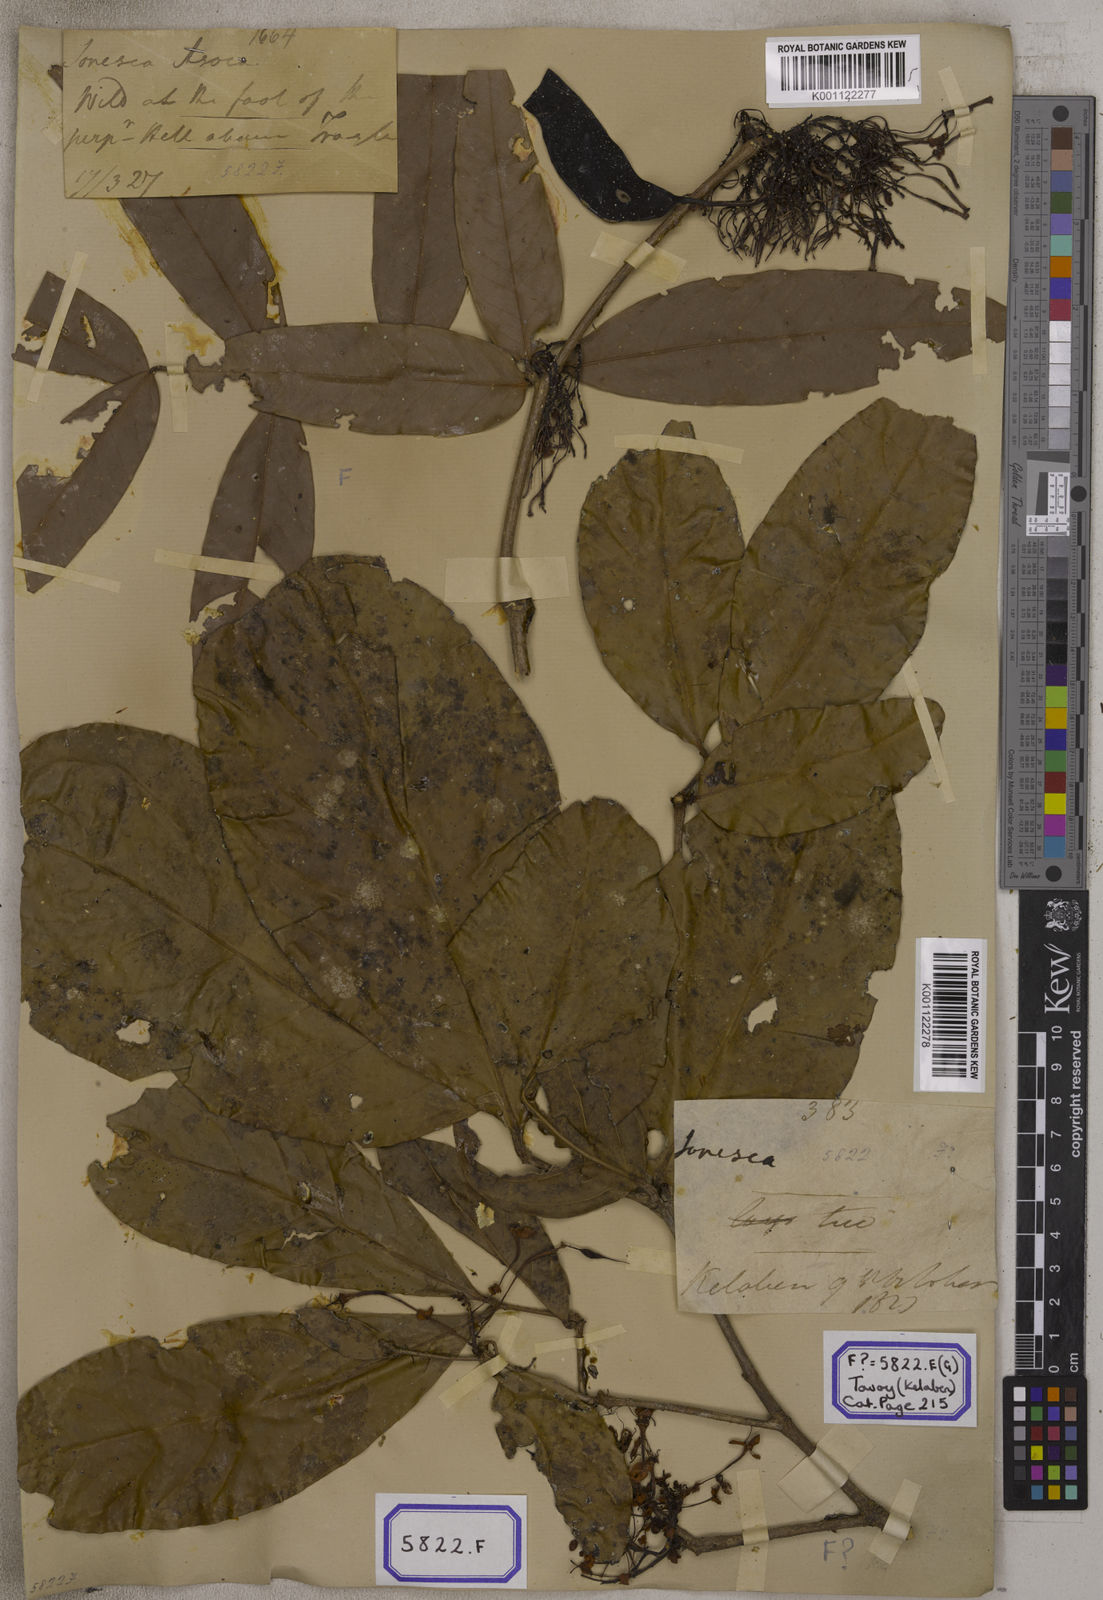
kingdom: Plantae
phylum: Tracheophyta
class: Magnoliopsida
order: Fabales
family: Fabaceae
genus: Saraca
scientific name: Saraca asoca
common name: Asoka-tree
